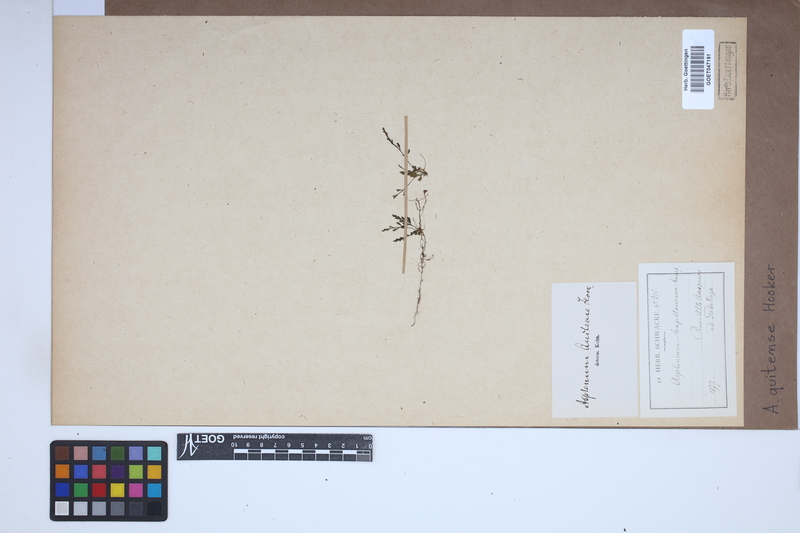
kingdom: Plantae
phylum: Tracheophyta
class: Polypodiopsida
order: Polypodiales
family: Aspleniaceae
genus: Asplenium
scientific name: Asplenium quitense
